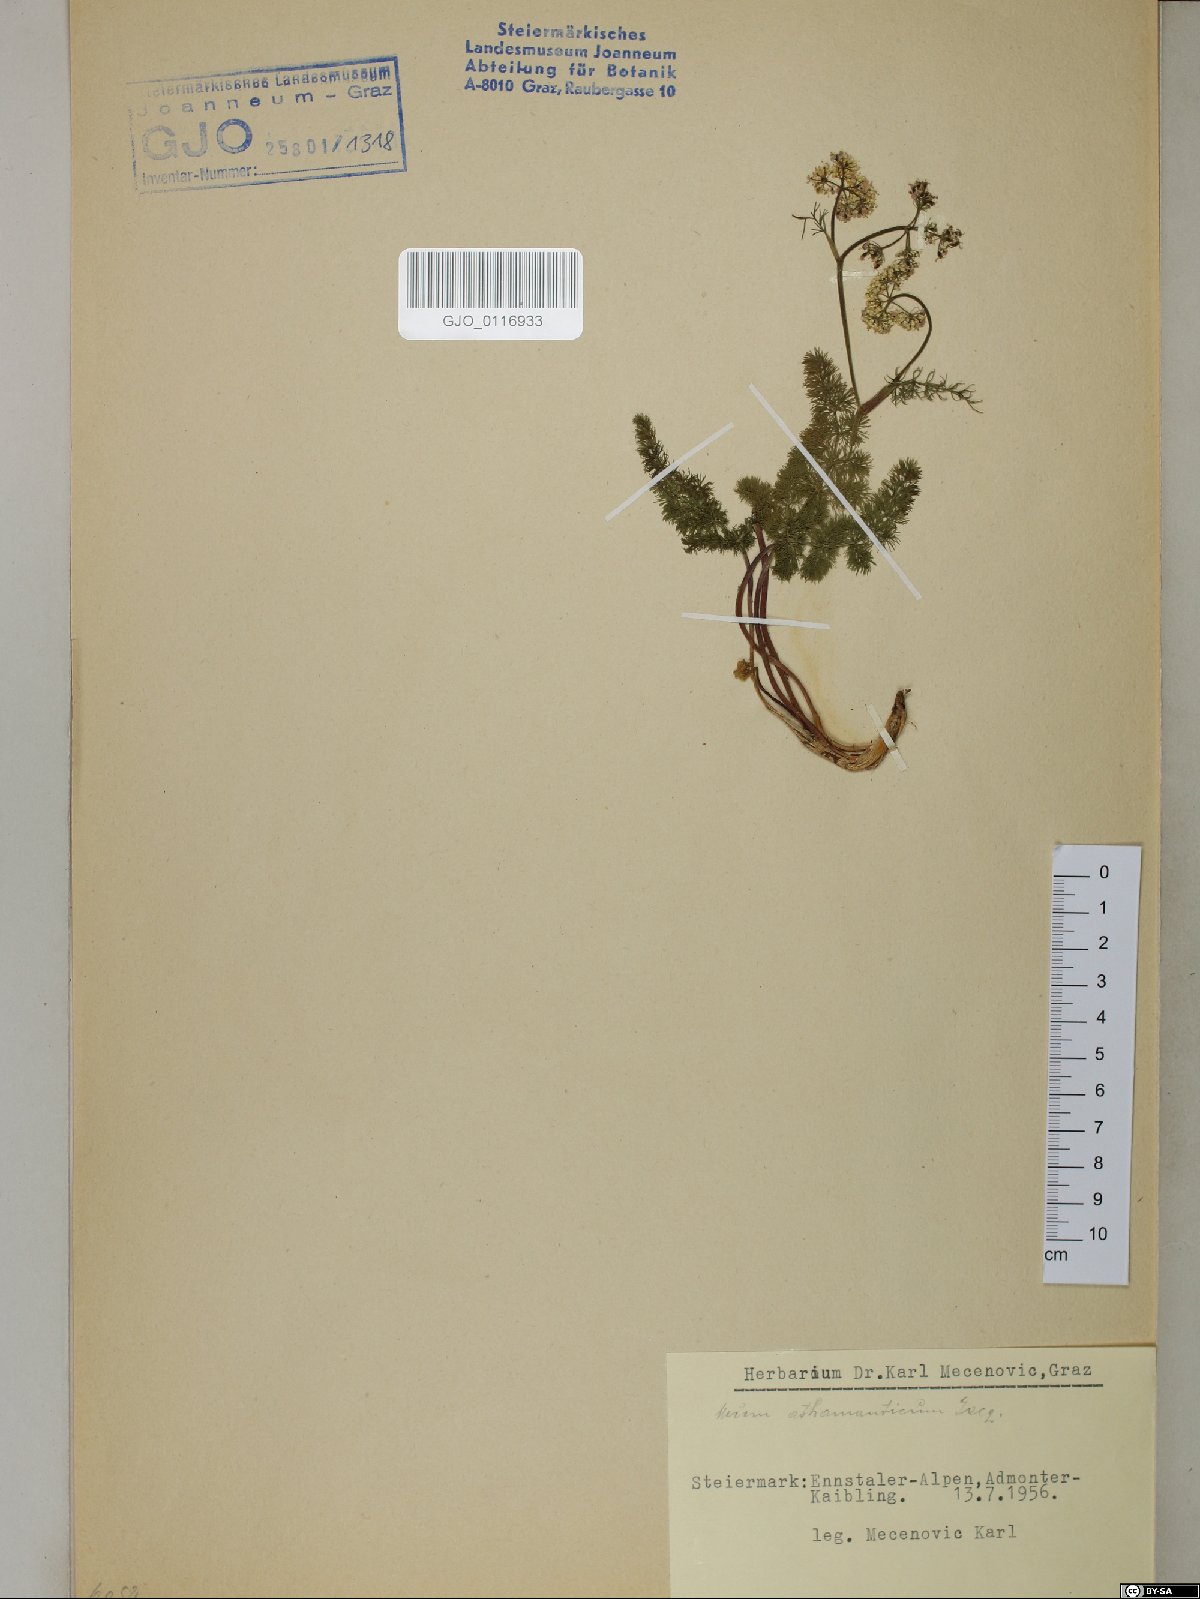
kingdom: Plantae
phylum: Tracheophyta
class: Magnoliopsida
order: Apiales
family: Apiaceae
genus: Meum
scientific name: Meum athamanticum
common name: Spignel
